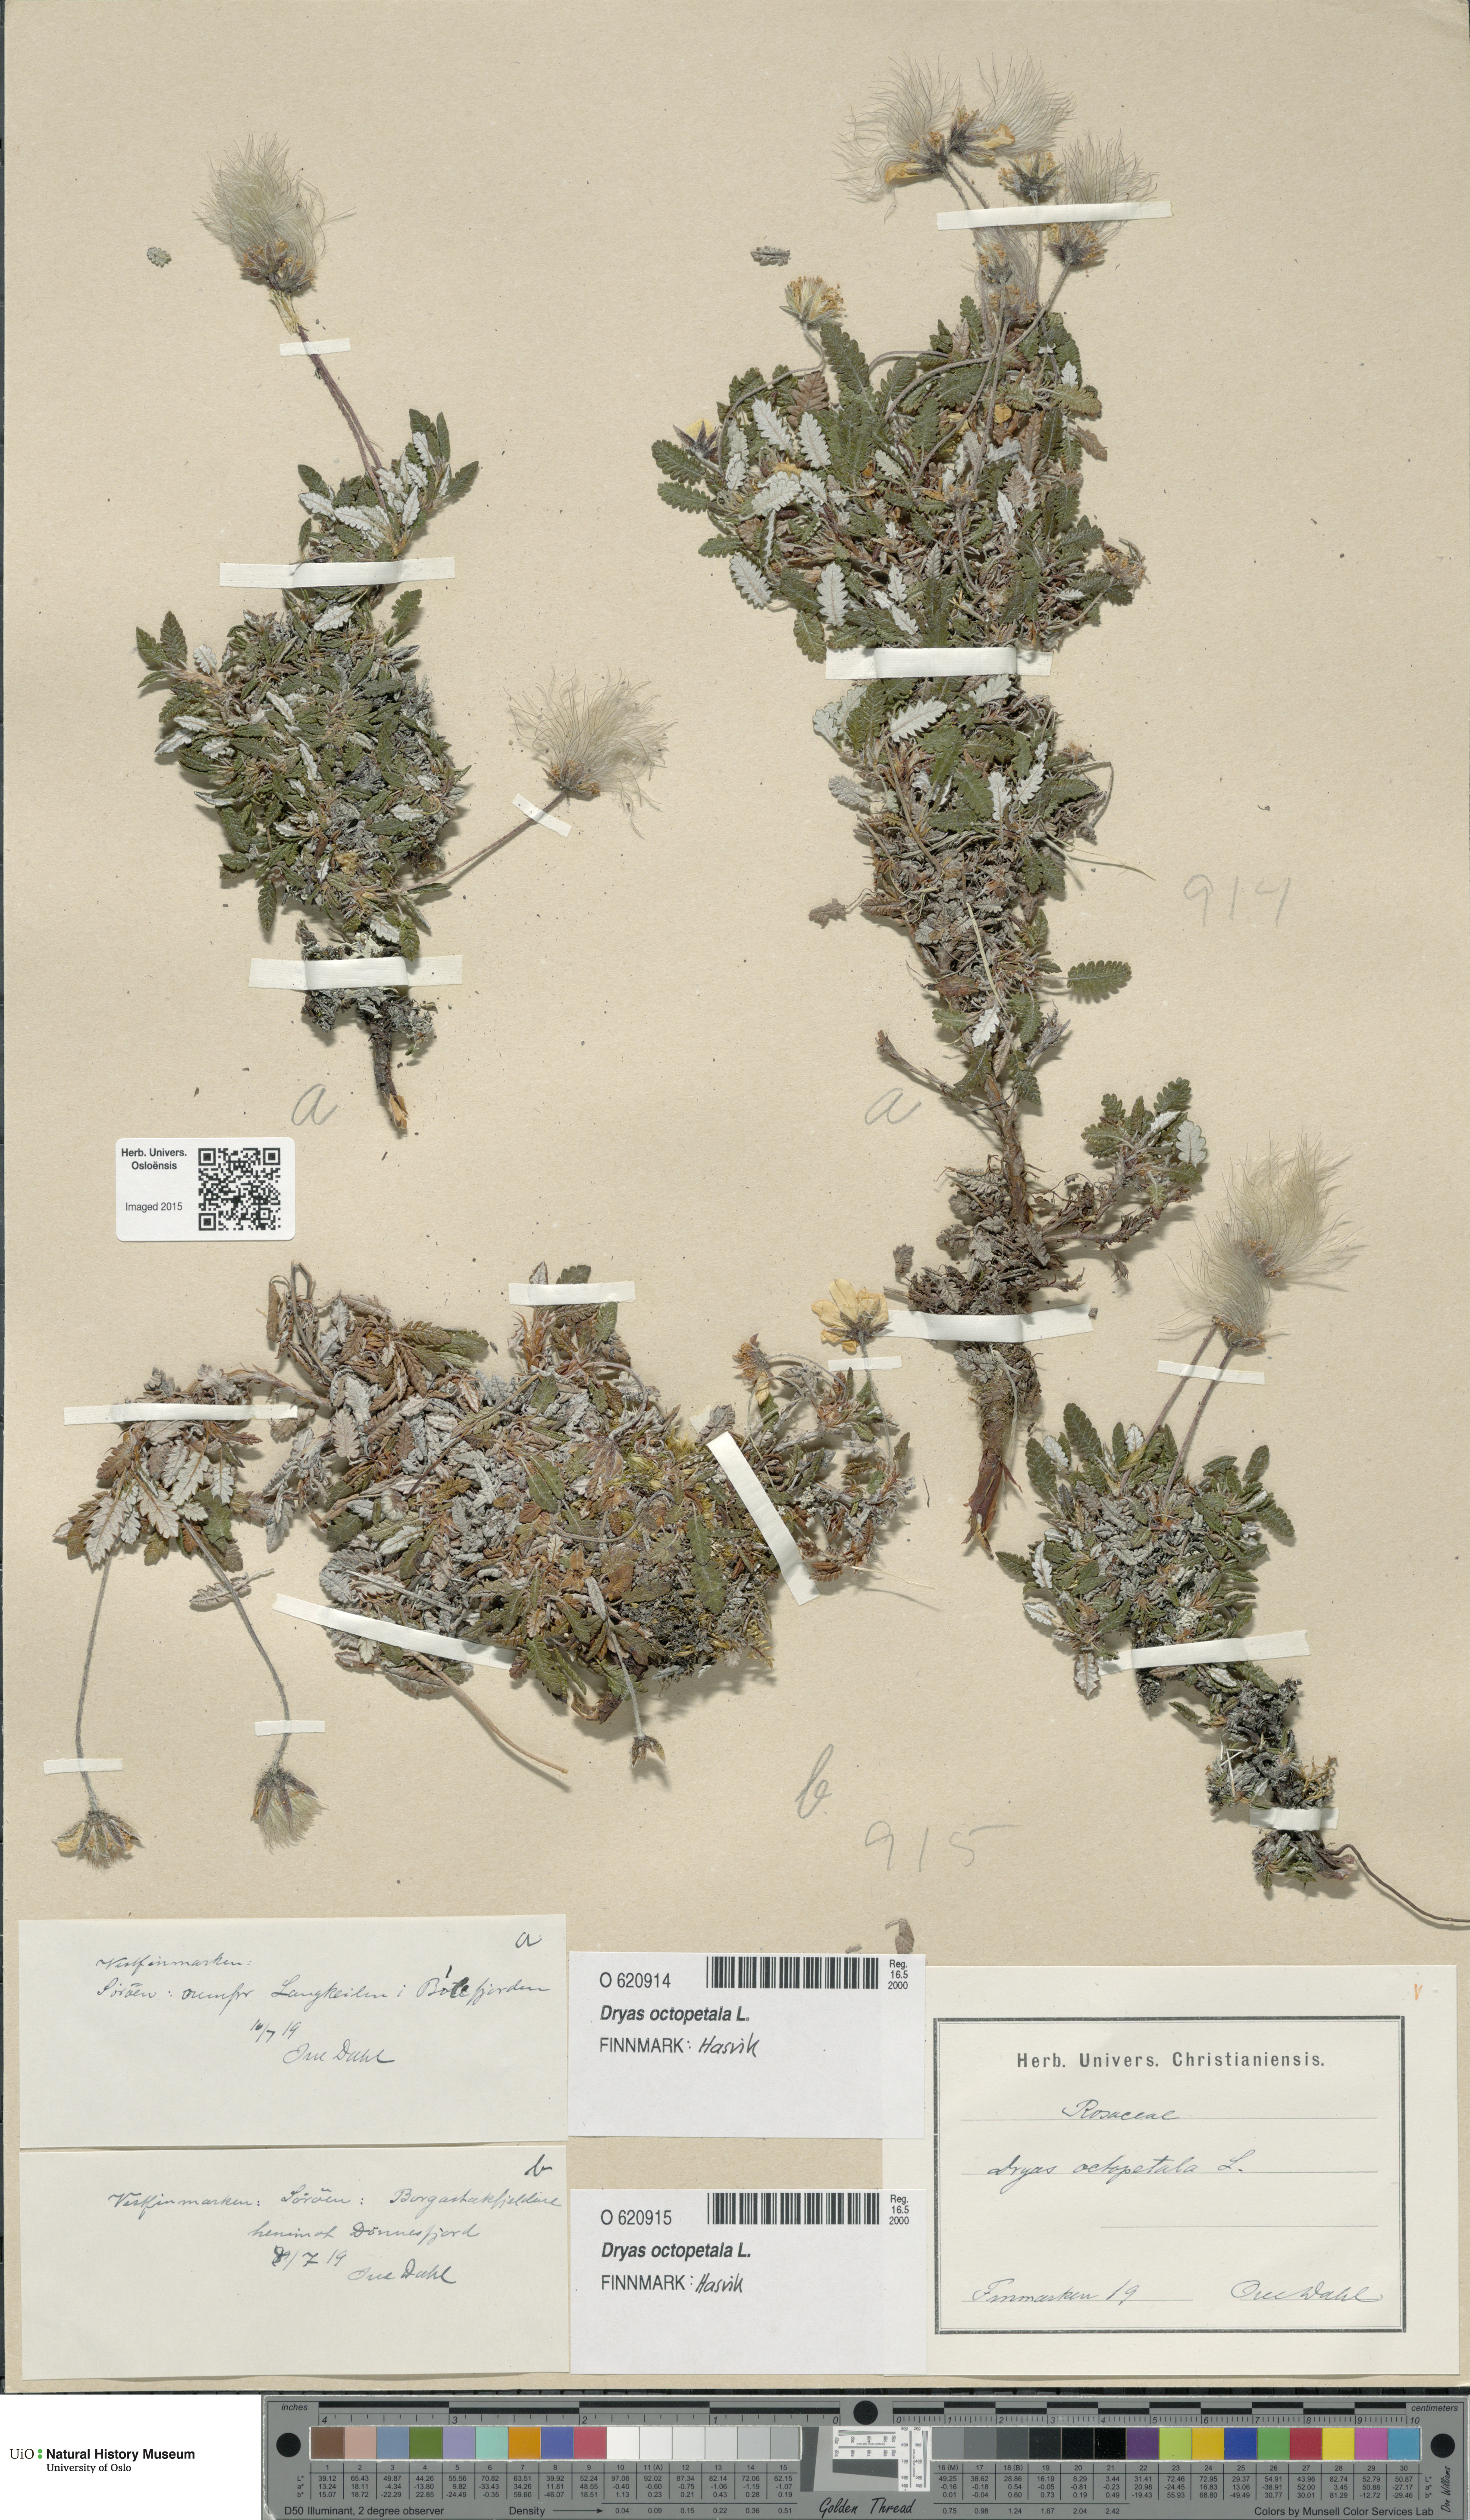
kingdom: Plantae
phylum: Tracheophyta
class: Magnoliopsida
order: Rosales
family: Rosaceae
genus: Dryas
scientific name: Dryas octopetala
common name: Eight-petal mountain-avens
